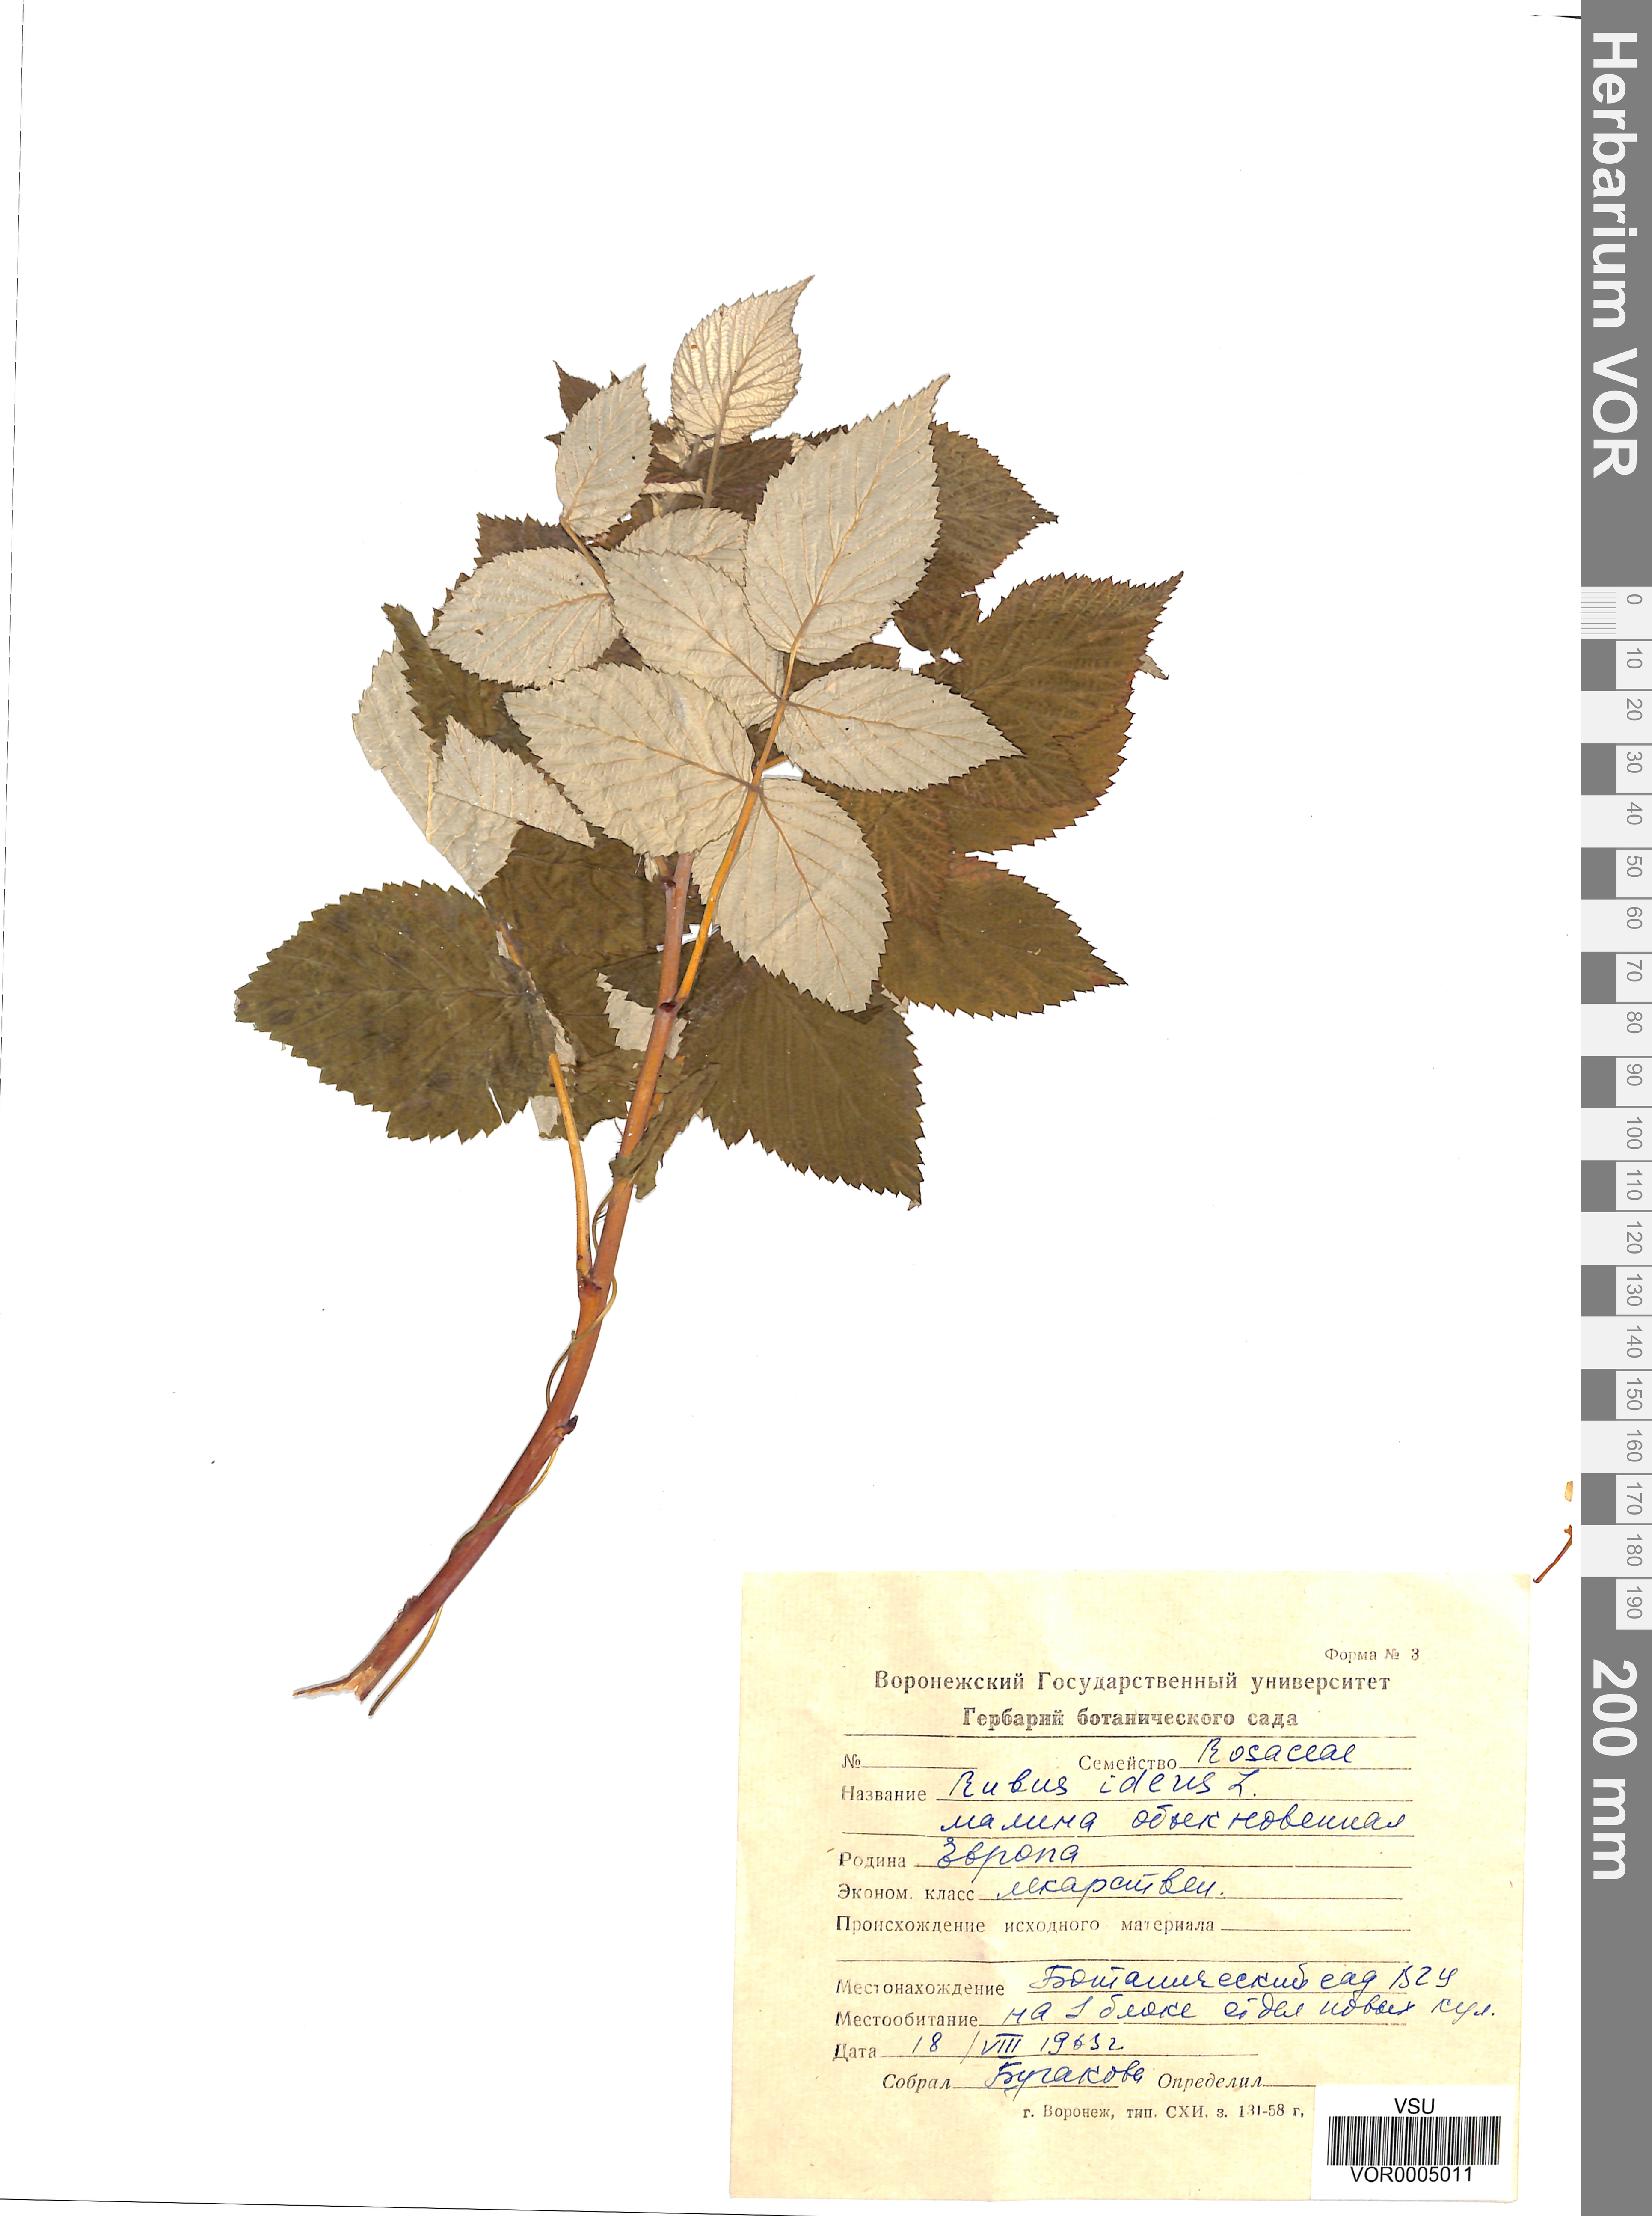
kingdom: Plantae
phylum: Tracheophyta
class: Magnoliopsida
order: Rosales
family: Rosaceae
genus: Rubus
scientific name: Rubus idaeus
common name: Raspberry
